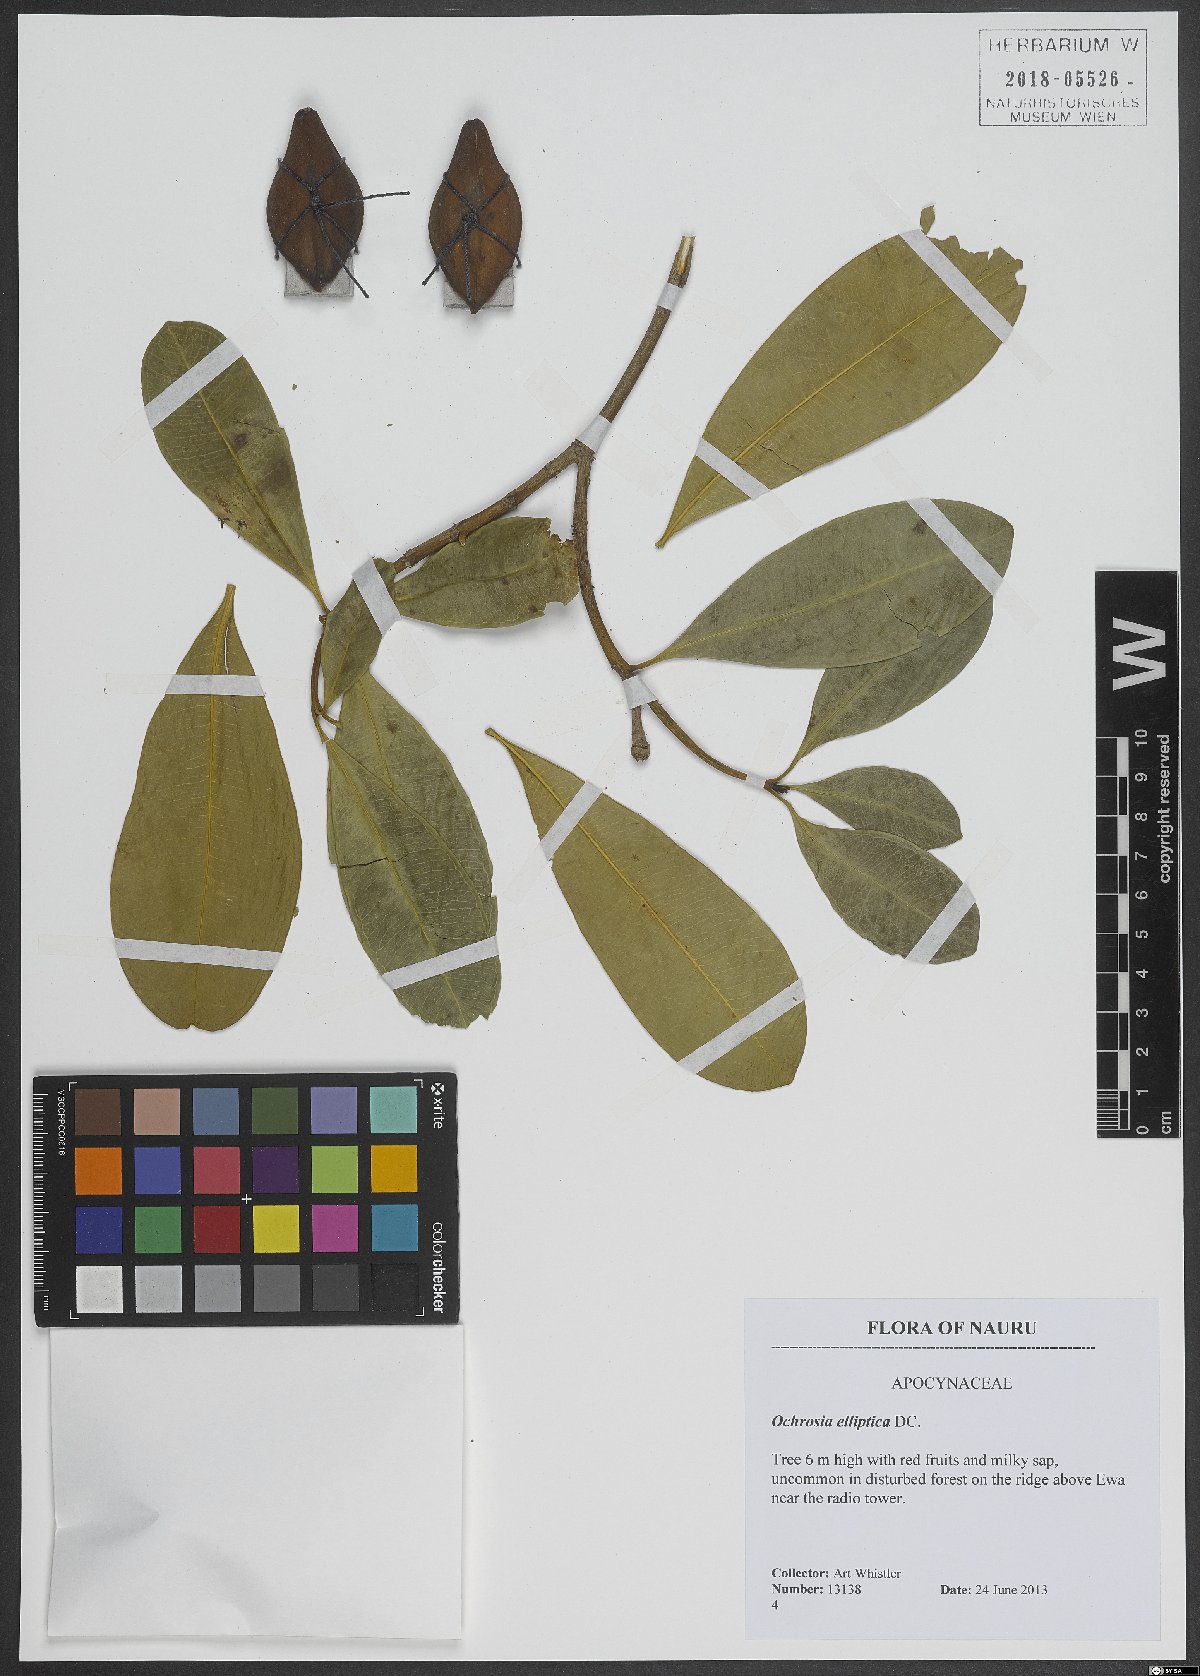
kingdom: Plantae
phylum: Tracheophyta
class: Magnoliopsida
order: Gentianales
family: Apocynaceae
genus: Ochrosia
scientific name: Ochrosia elliptica
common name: Elliptic yellowwood
